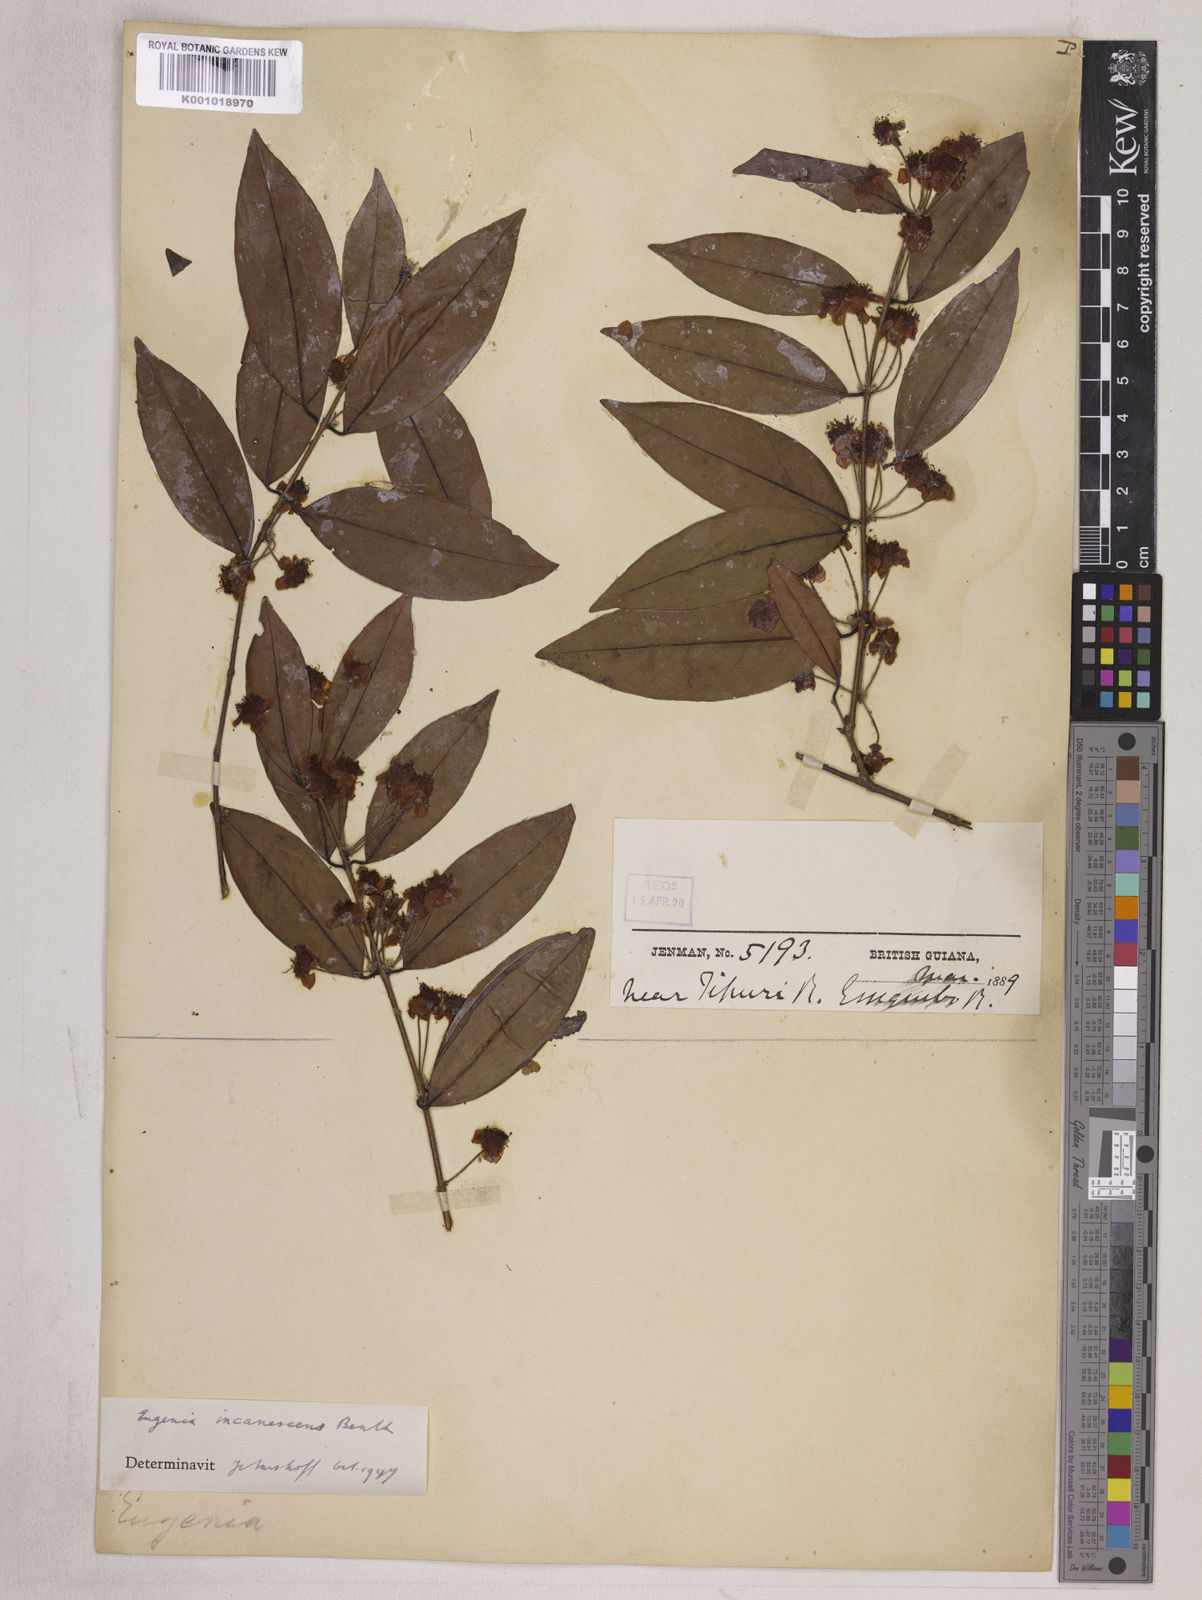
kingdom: Plantae
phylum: Tracheophyta
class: Magnoliopsida
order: Myrtales
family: Myrtaceae
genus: Eugenia
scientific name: Eugenia incanescens
